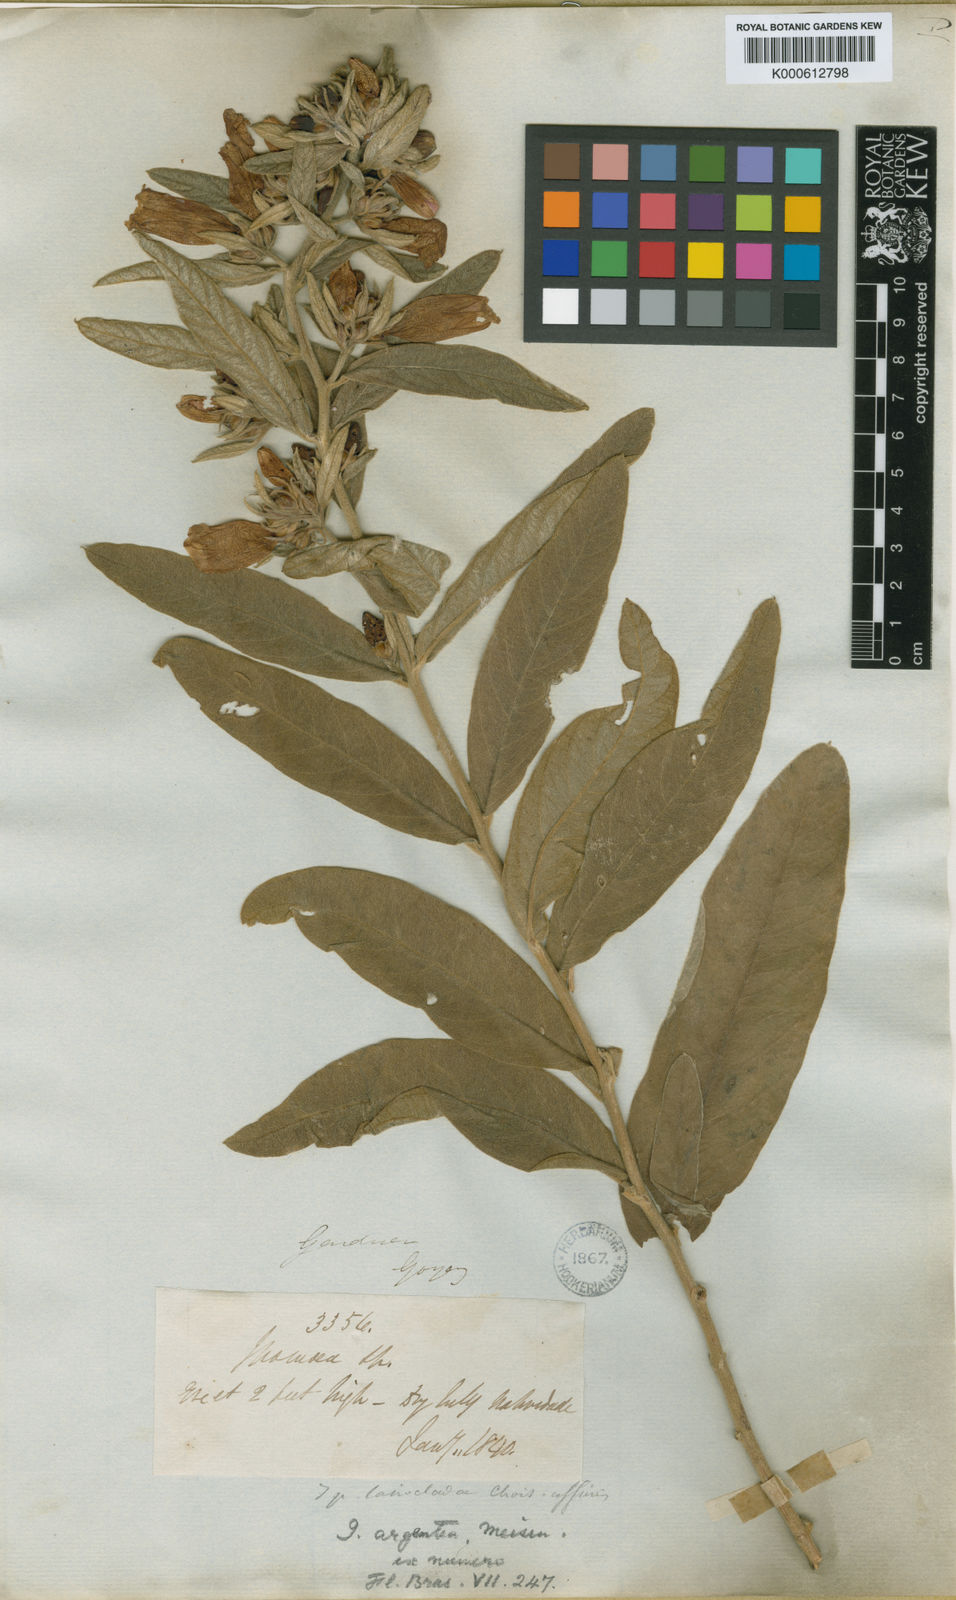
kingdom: Plantae
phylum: Tracheophyta
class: Magnoliopsida
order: Solanales
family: Convolvulaceae
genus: Ipomoea
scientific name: Ipomoea argentea
